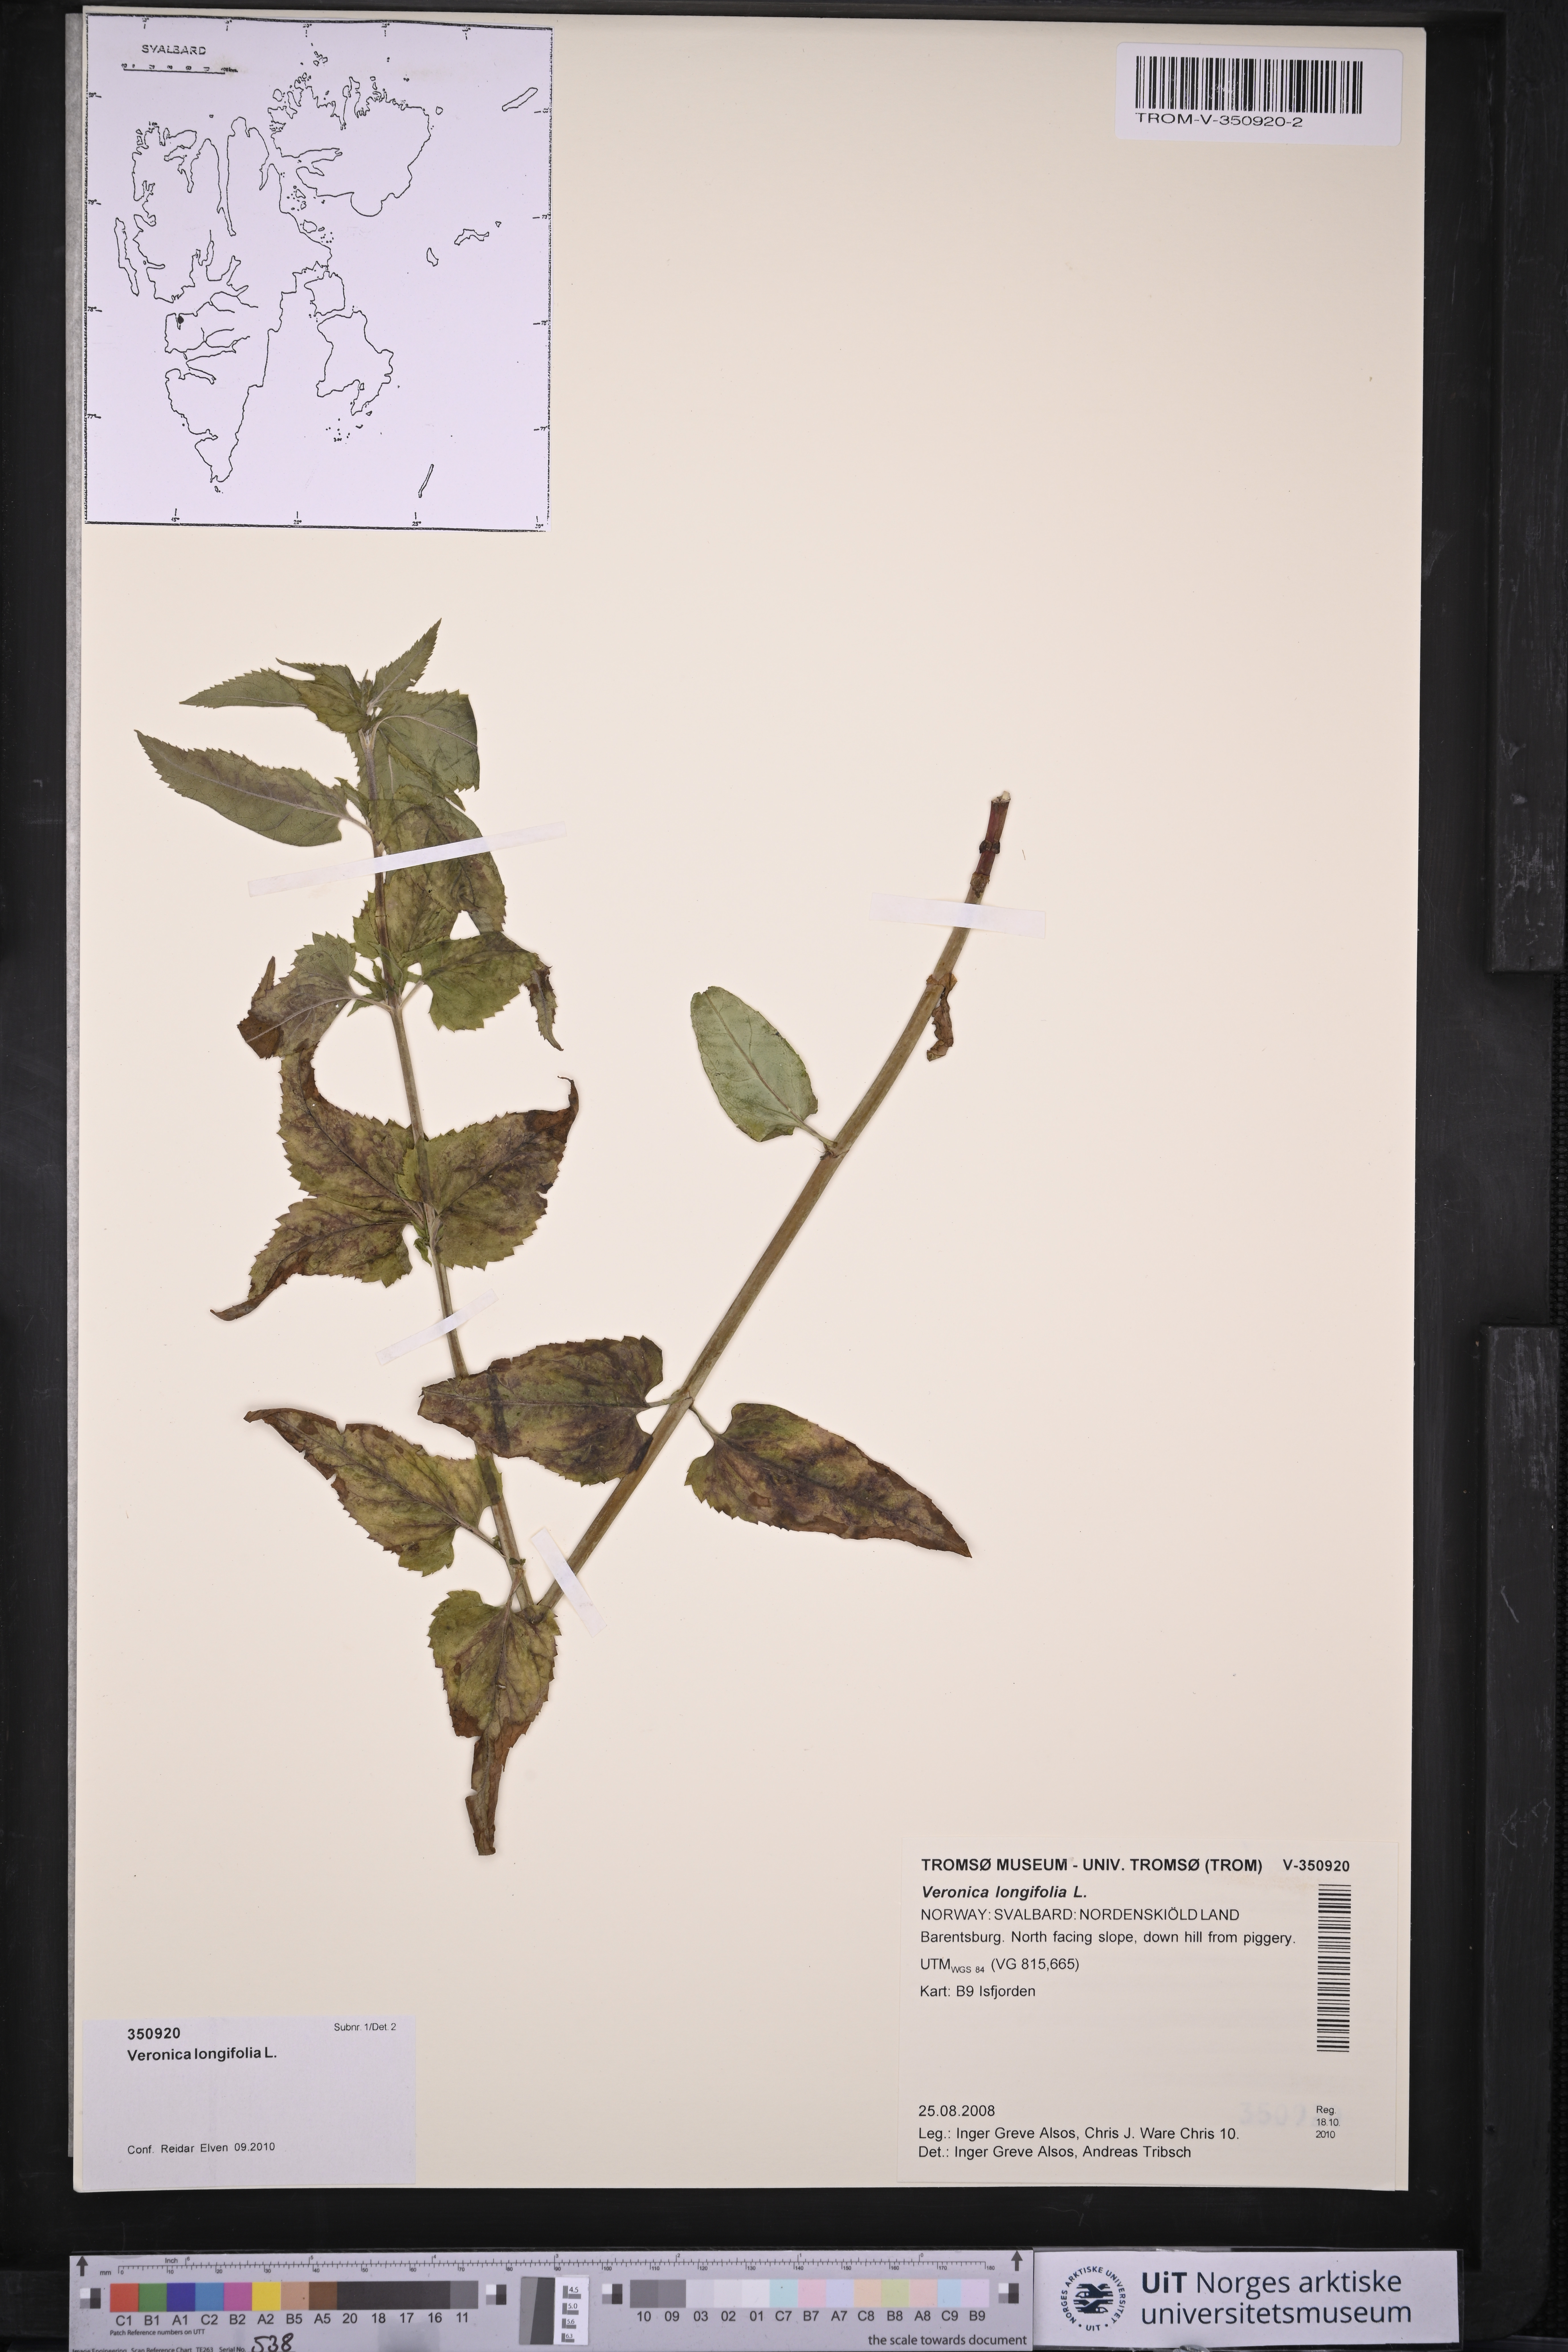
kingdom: Plantae
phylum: Tracheophyta
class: Magnoliopsida
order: Lamiales
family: Plantaginaceae
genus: Veronica
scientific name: Veronica longifolia
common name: Garden speedwell
